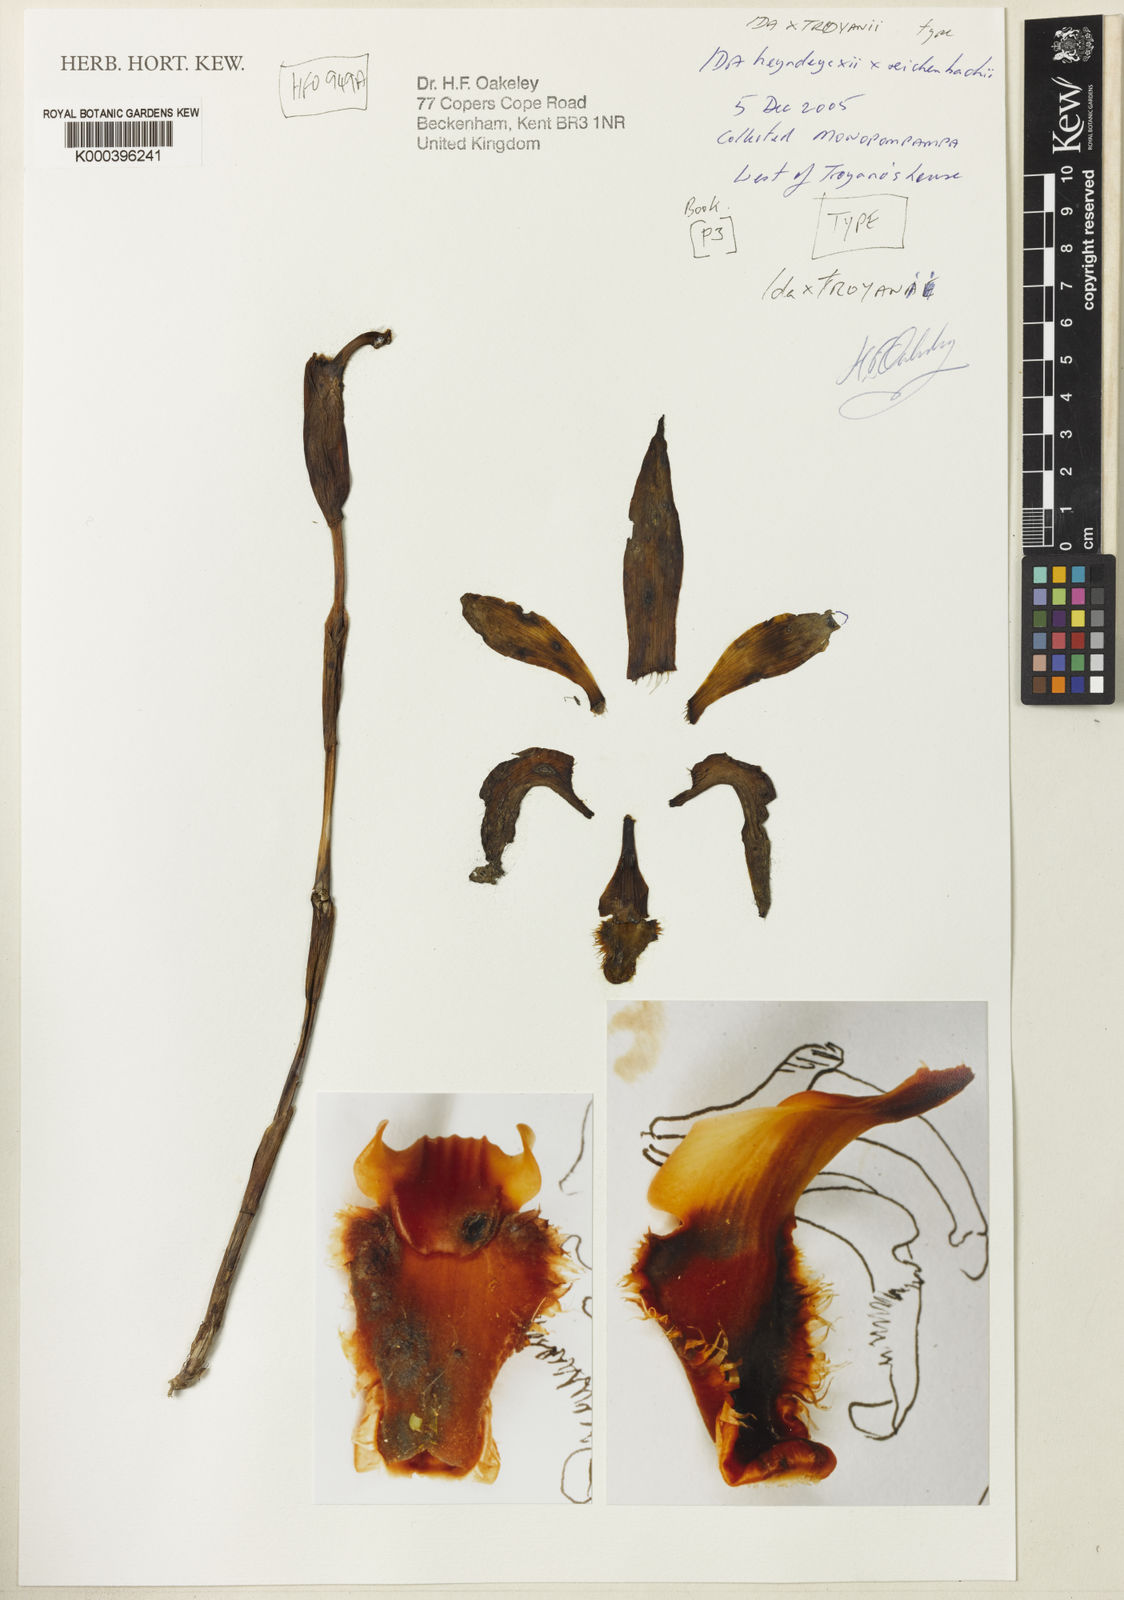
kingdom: Plantae
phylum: Tracheophyta
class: Liliopsida
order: Asparagales
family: Orchidaceae
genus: Ida
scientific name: Ida troyanoi
